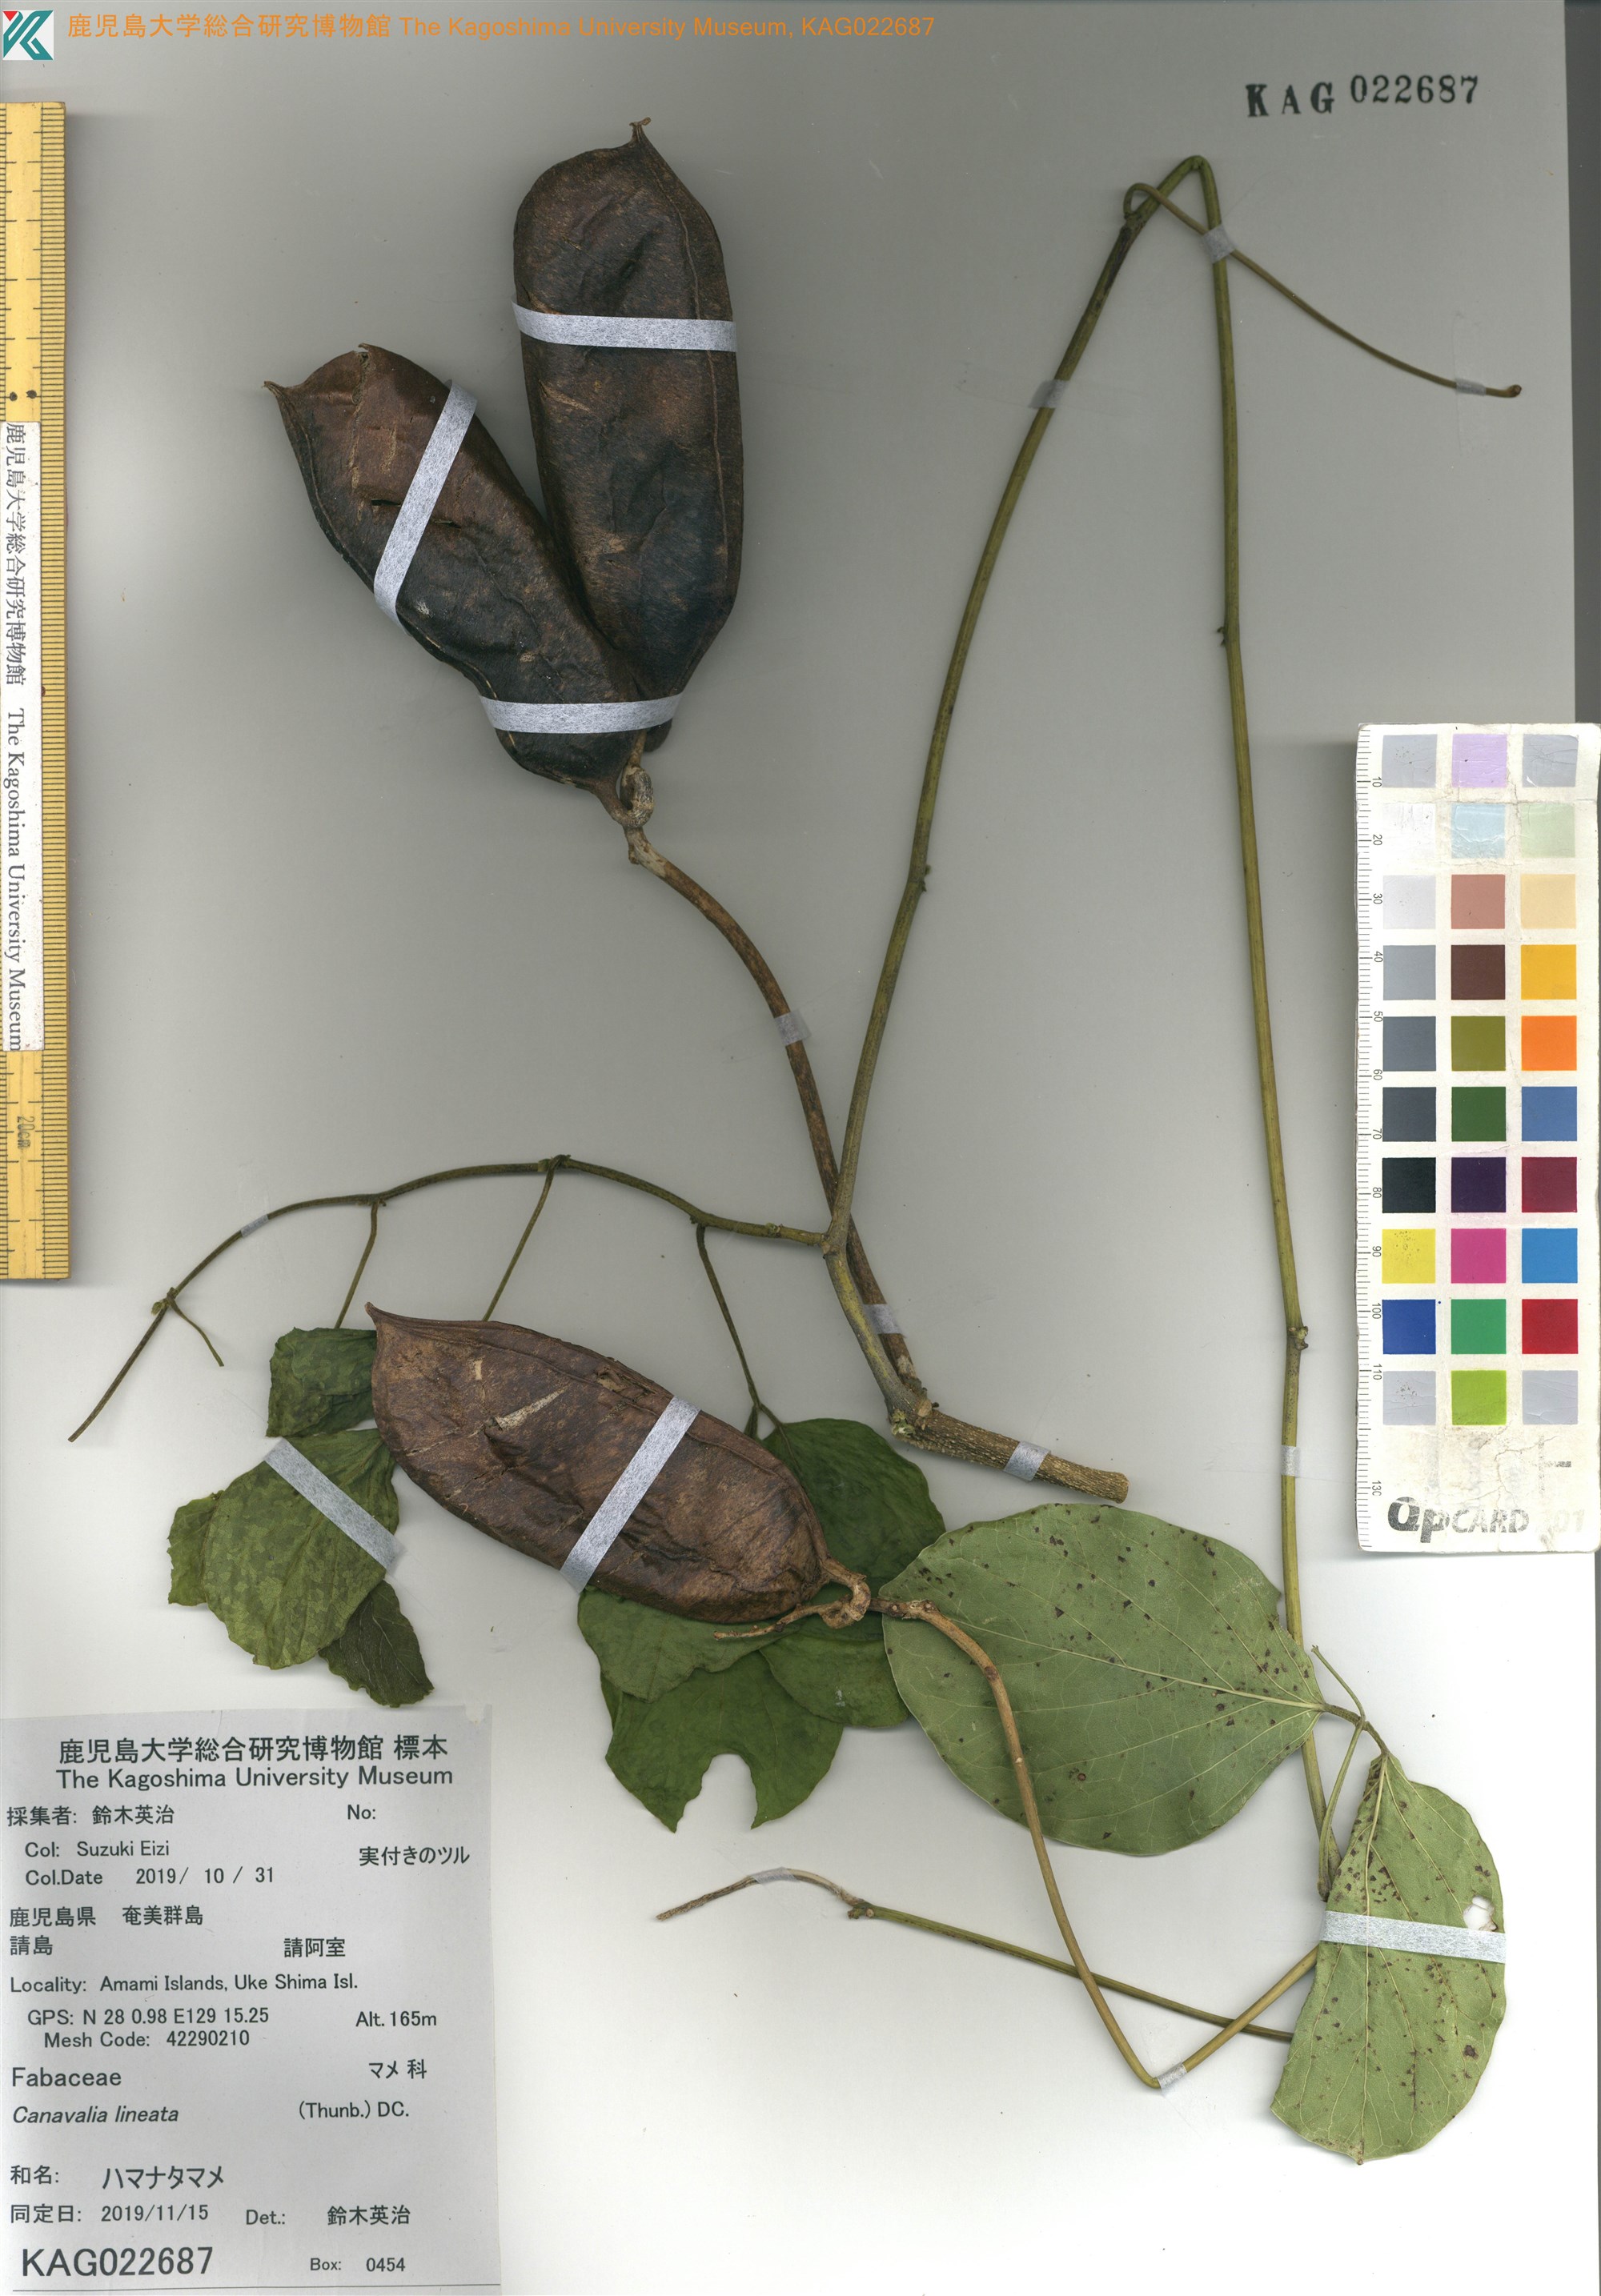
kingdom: Plantae
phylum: Tracheophyta
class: Magnoliopsida
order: Fabales
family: Fabaceae
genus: Canavalia
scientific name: Canavalia lineata
